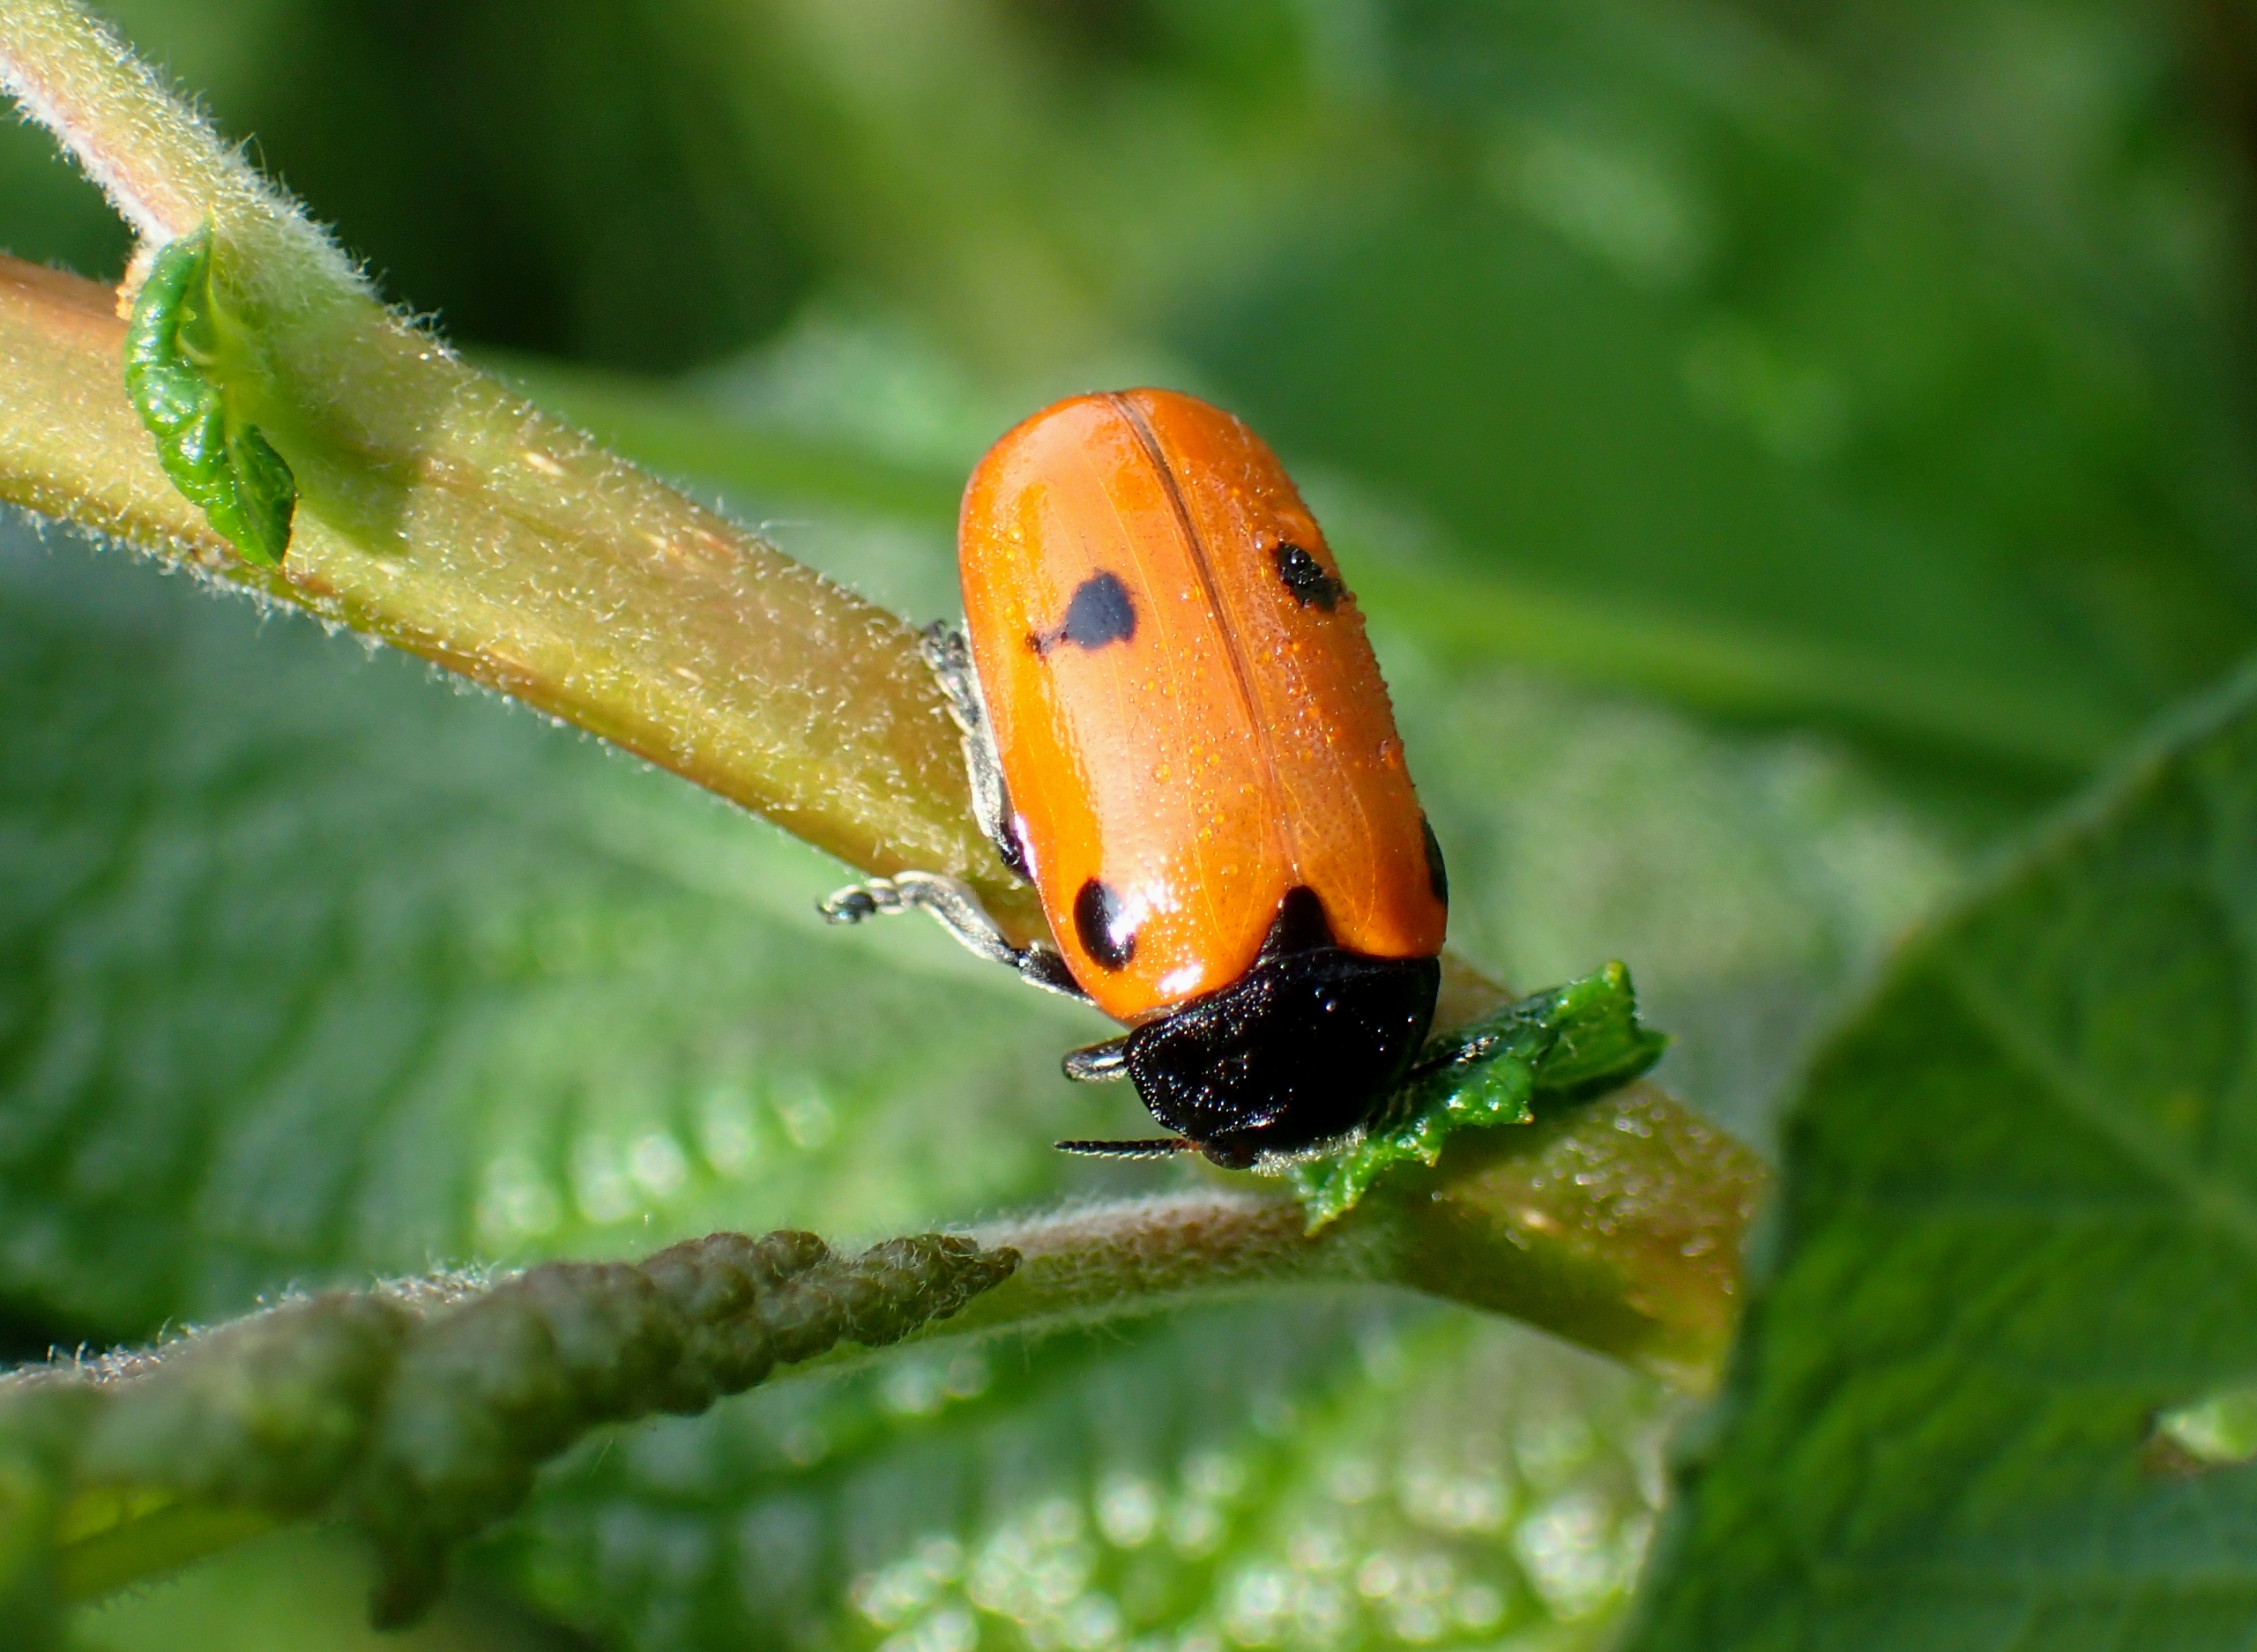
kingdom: Animalia
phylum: Arthropoda
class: Insecta
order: Coleoptera
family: Chrysomelidae
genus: Clytra
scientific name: Clytra quadripunctata
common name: Myrebladbille
